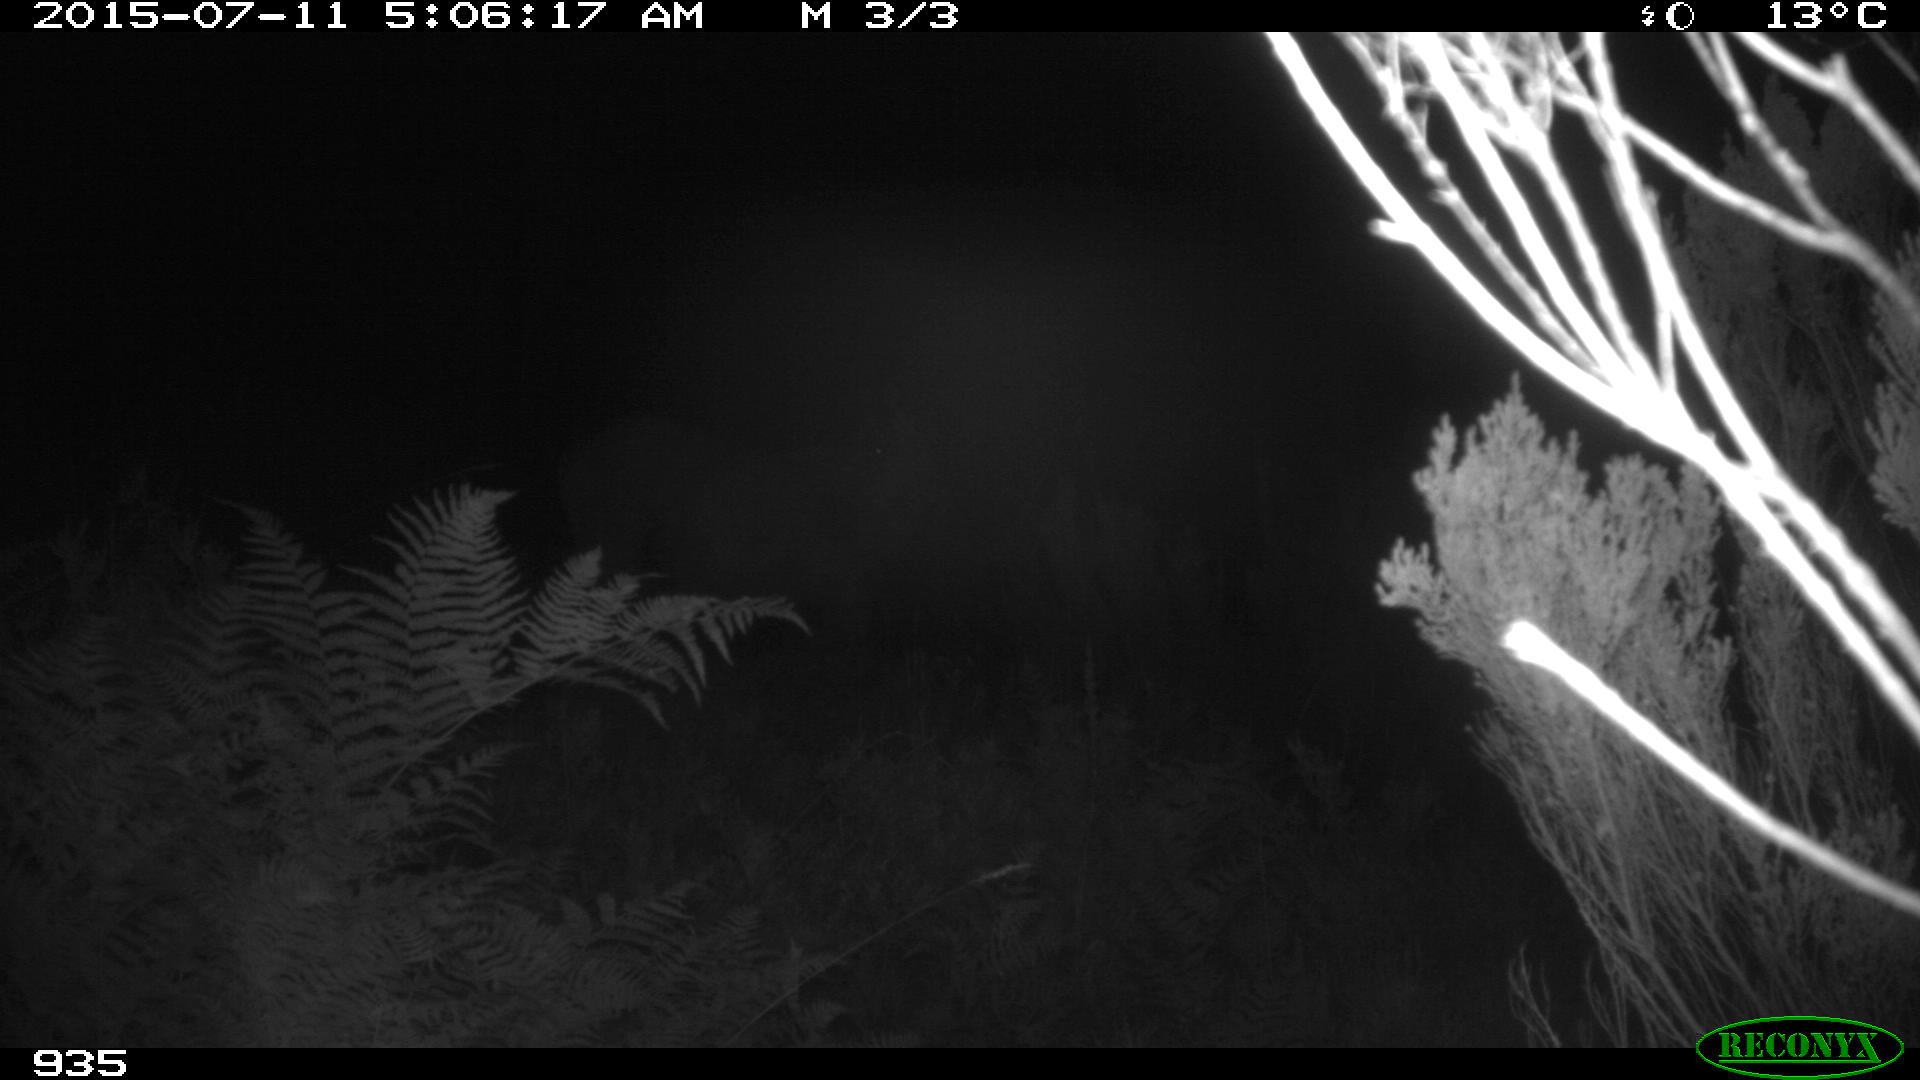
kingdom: Animalia
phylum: Chordata
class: Mammalia
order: Perissodactyla
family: Equidae
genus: Equus
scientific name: Equus caballus
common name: Horse
